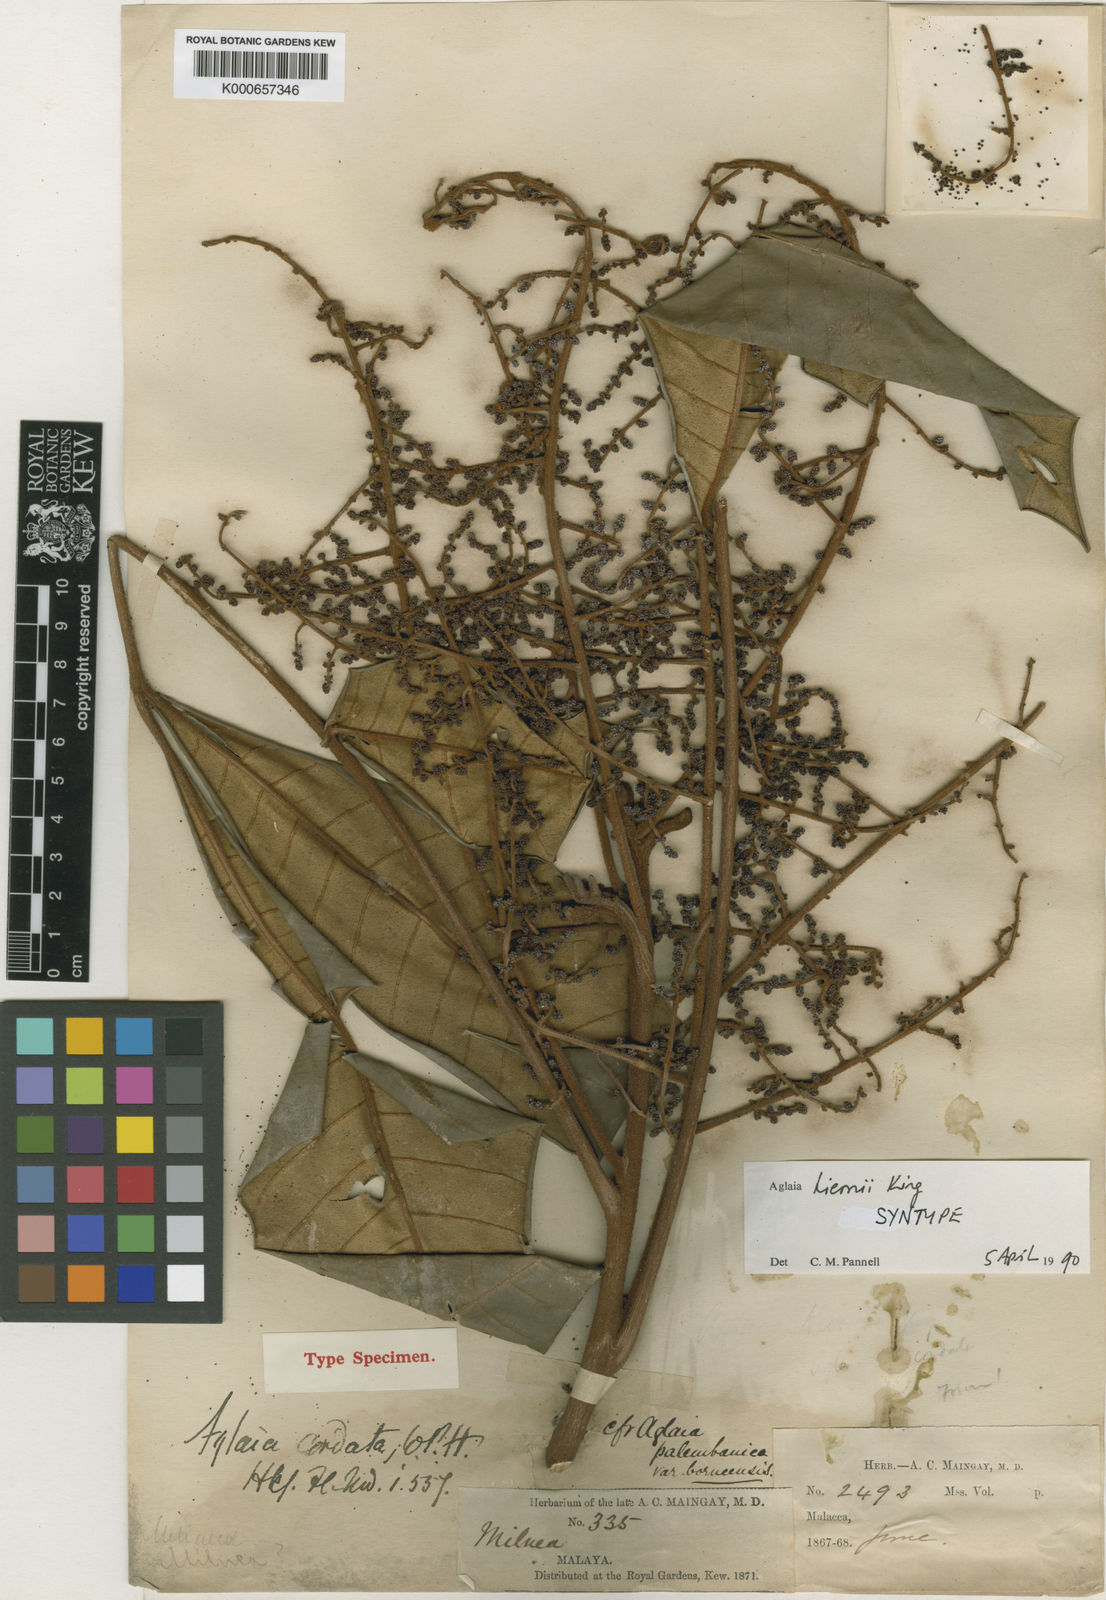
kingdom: Plantae
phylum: Tracheophyta
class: Magnoliopsida
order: Sapindales
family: Meliaceae
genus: Aglaia
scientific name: Aglaia hiernii
